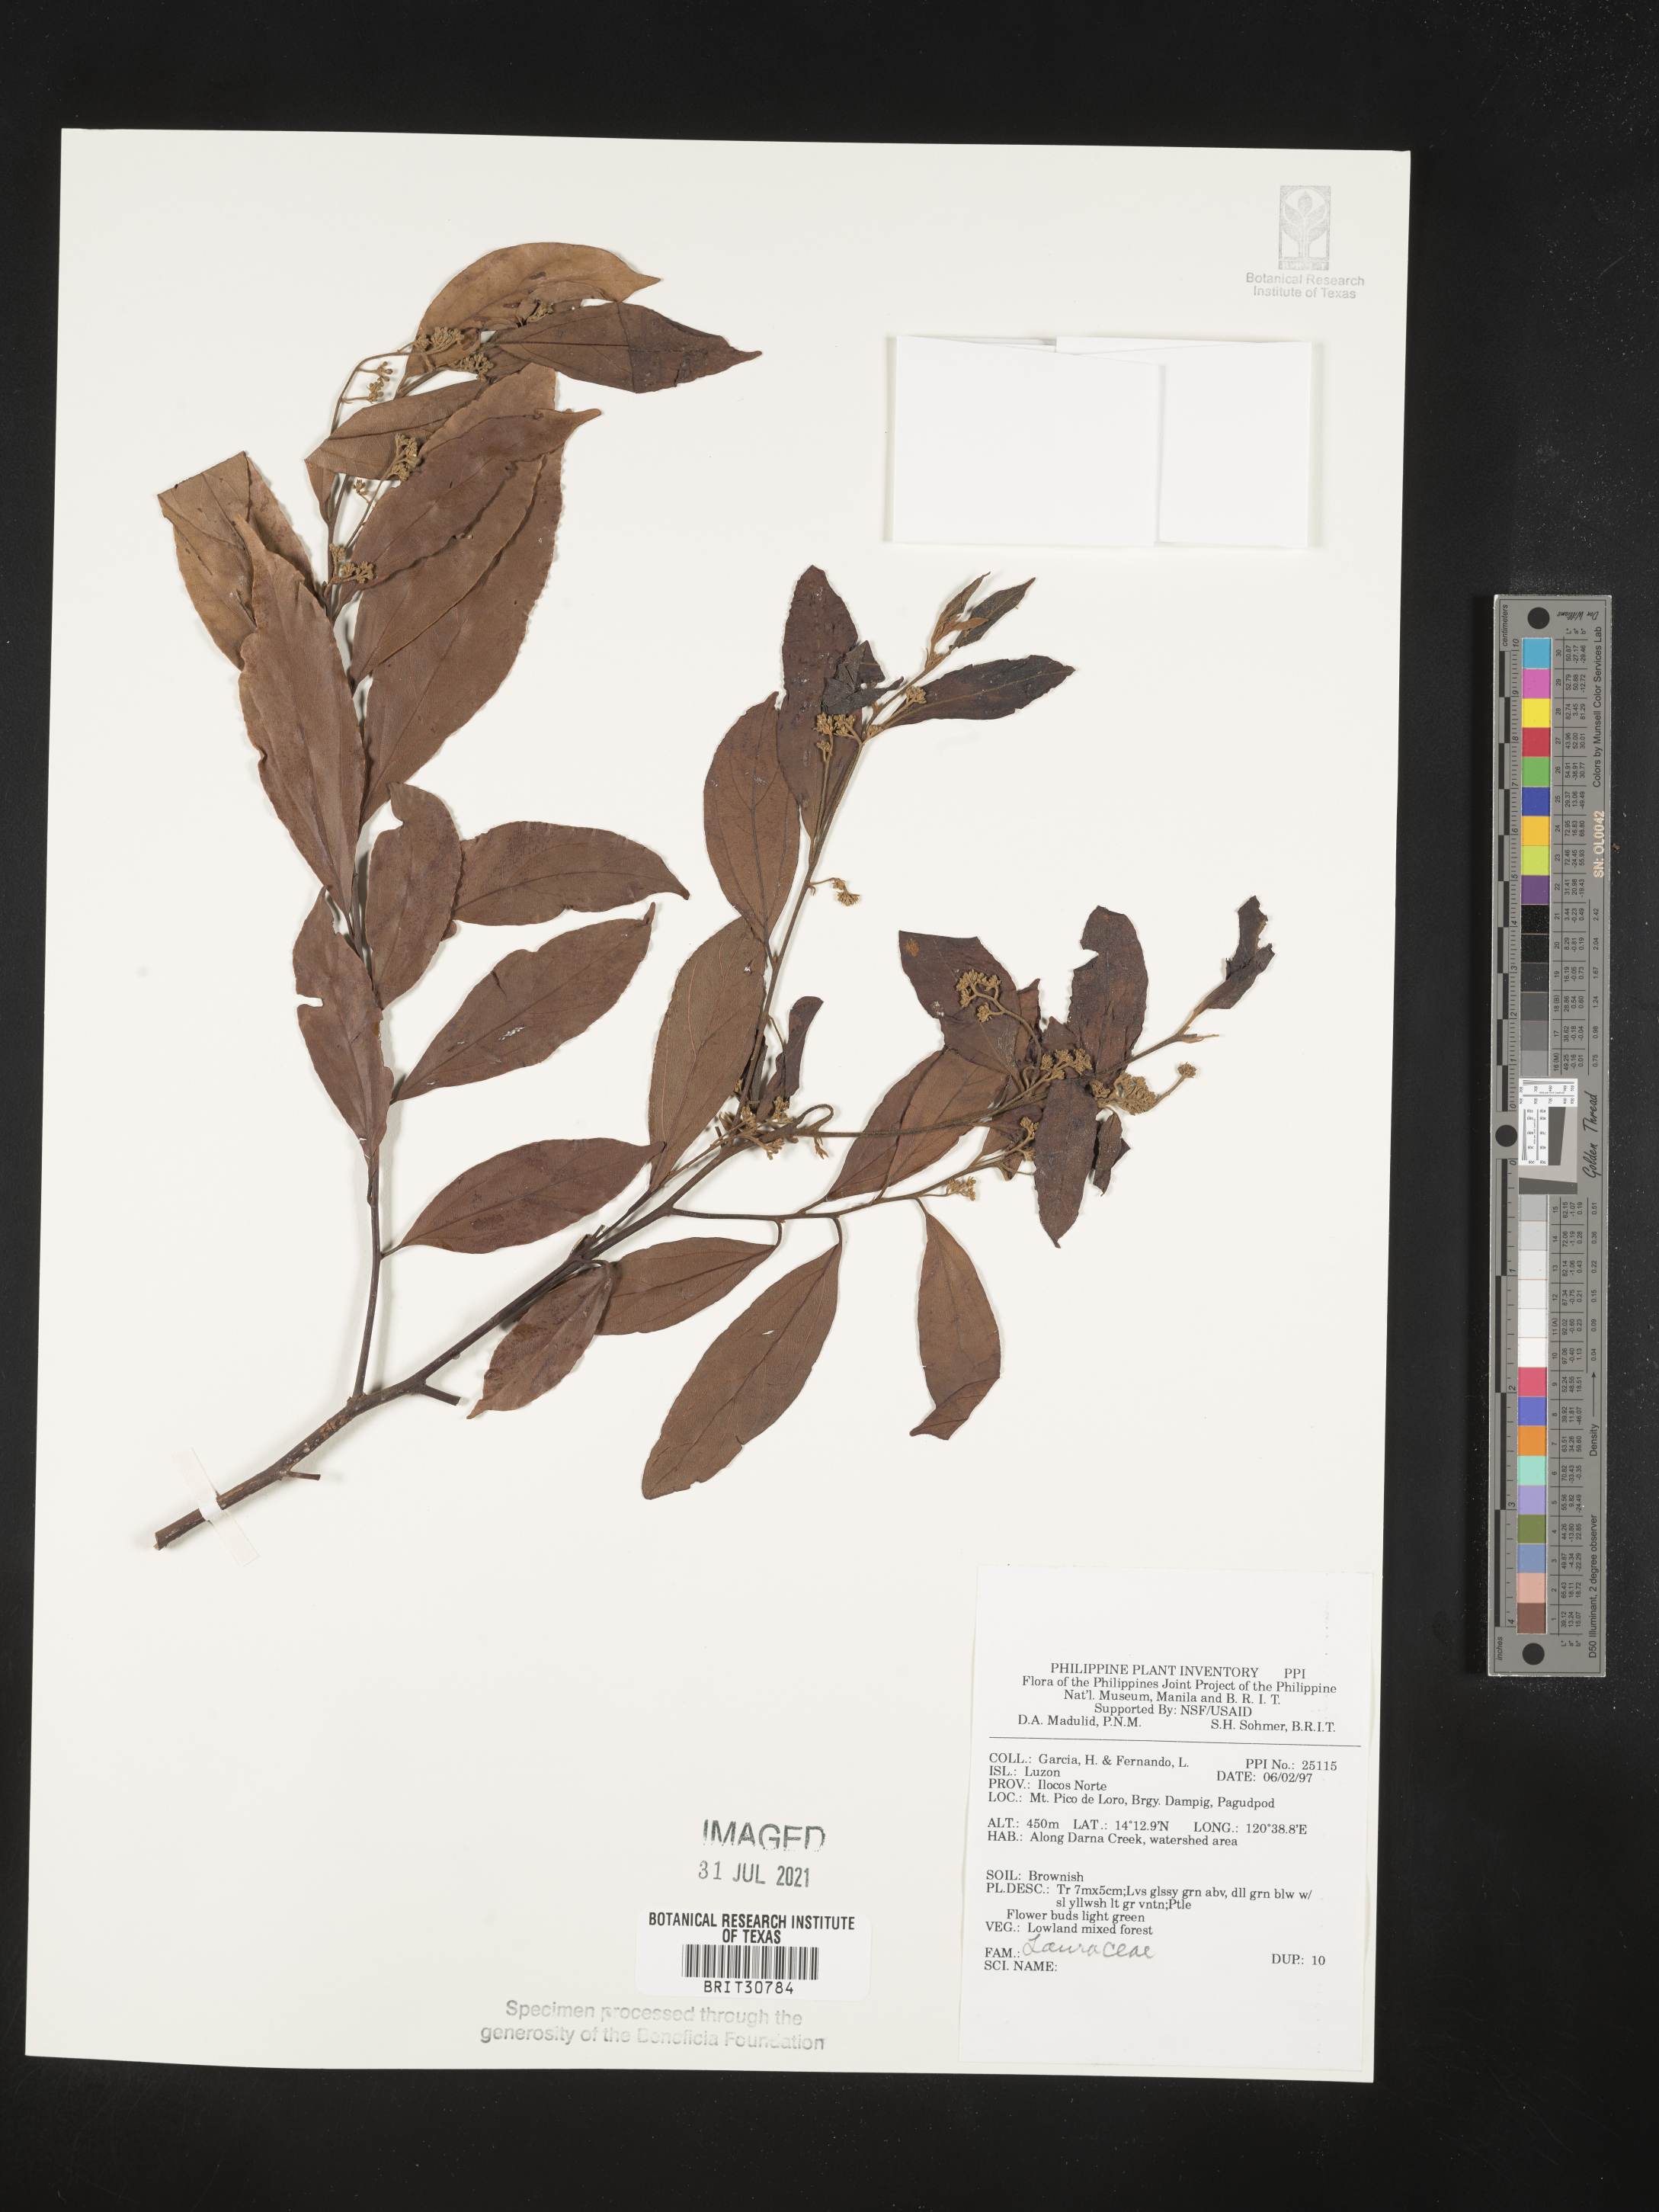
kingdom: Plantae
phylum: Tracheophyta
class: Magnoliopsida
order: Laurales
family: Lauraceae
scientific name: Lauraceae
